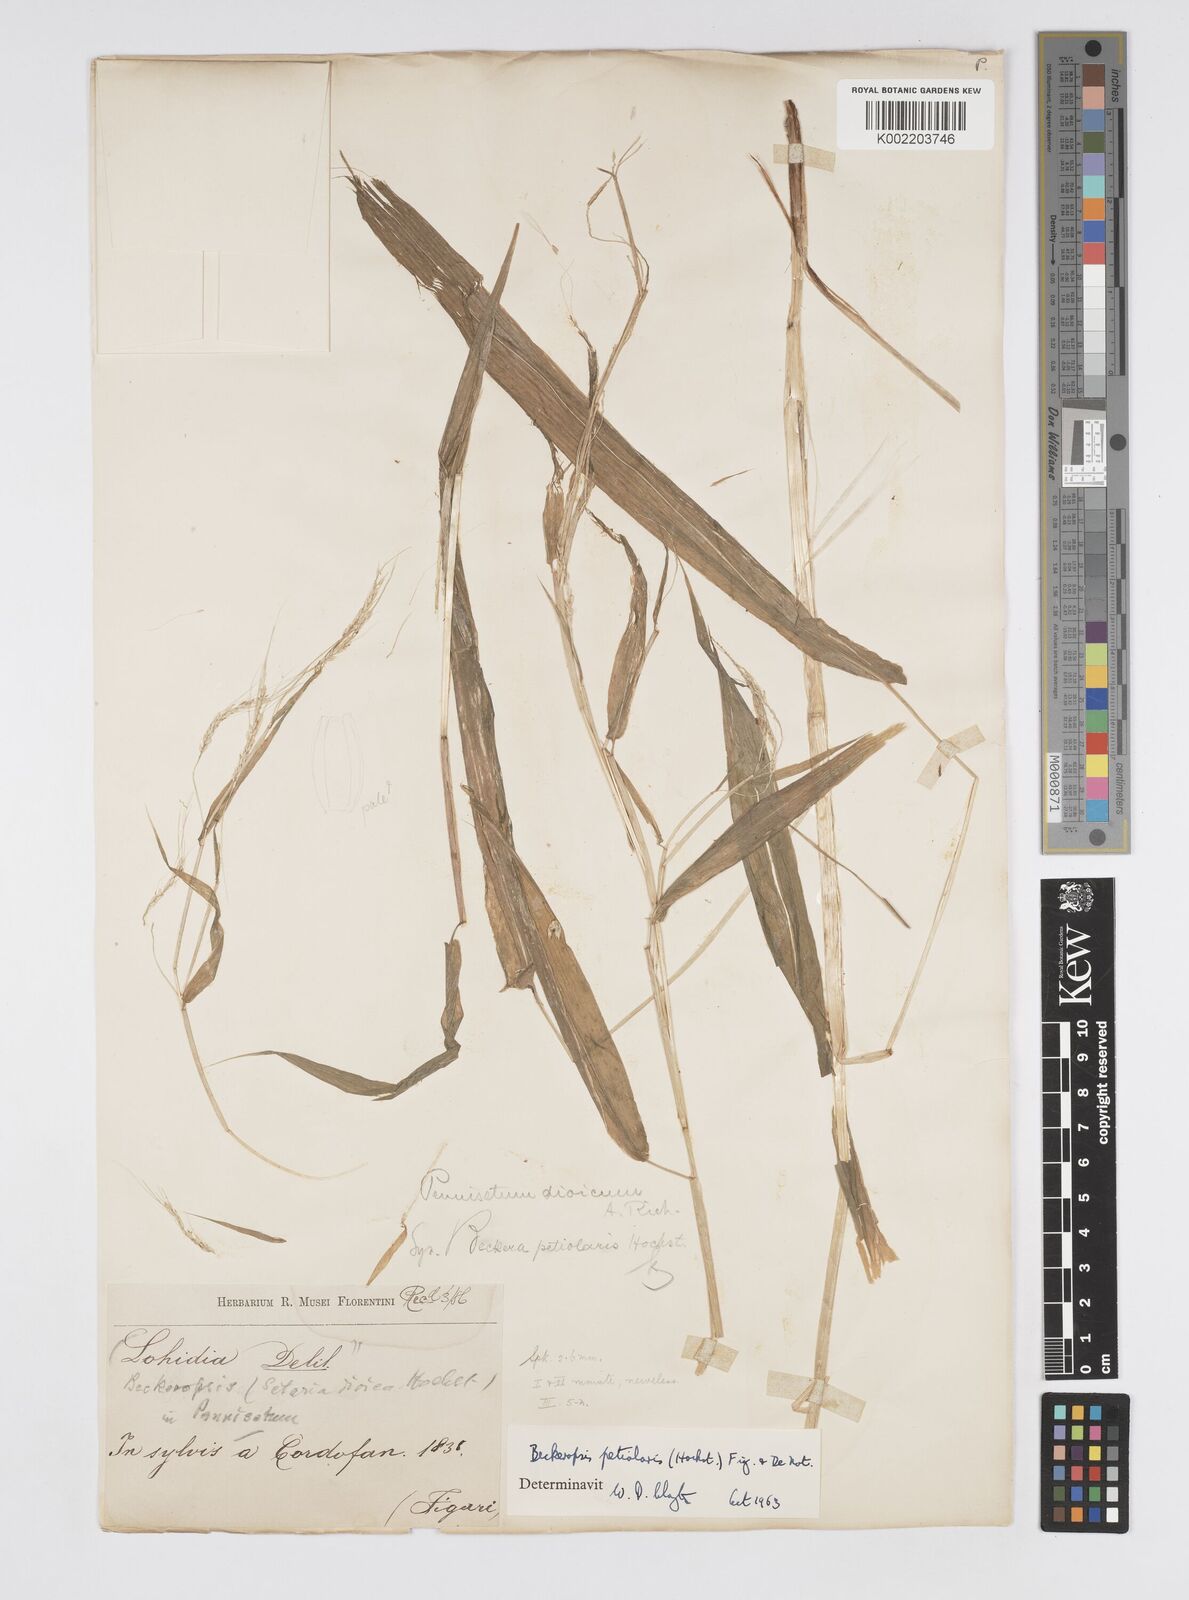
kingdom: Plantae
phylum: Tracheophyta
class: Liliopsida
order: Poales
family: Poaceae
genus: Cenchrus
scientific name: Cenchrus petiolaris
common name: Grass
